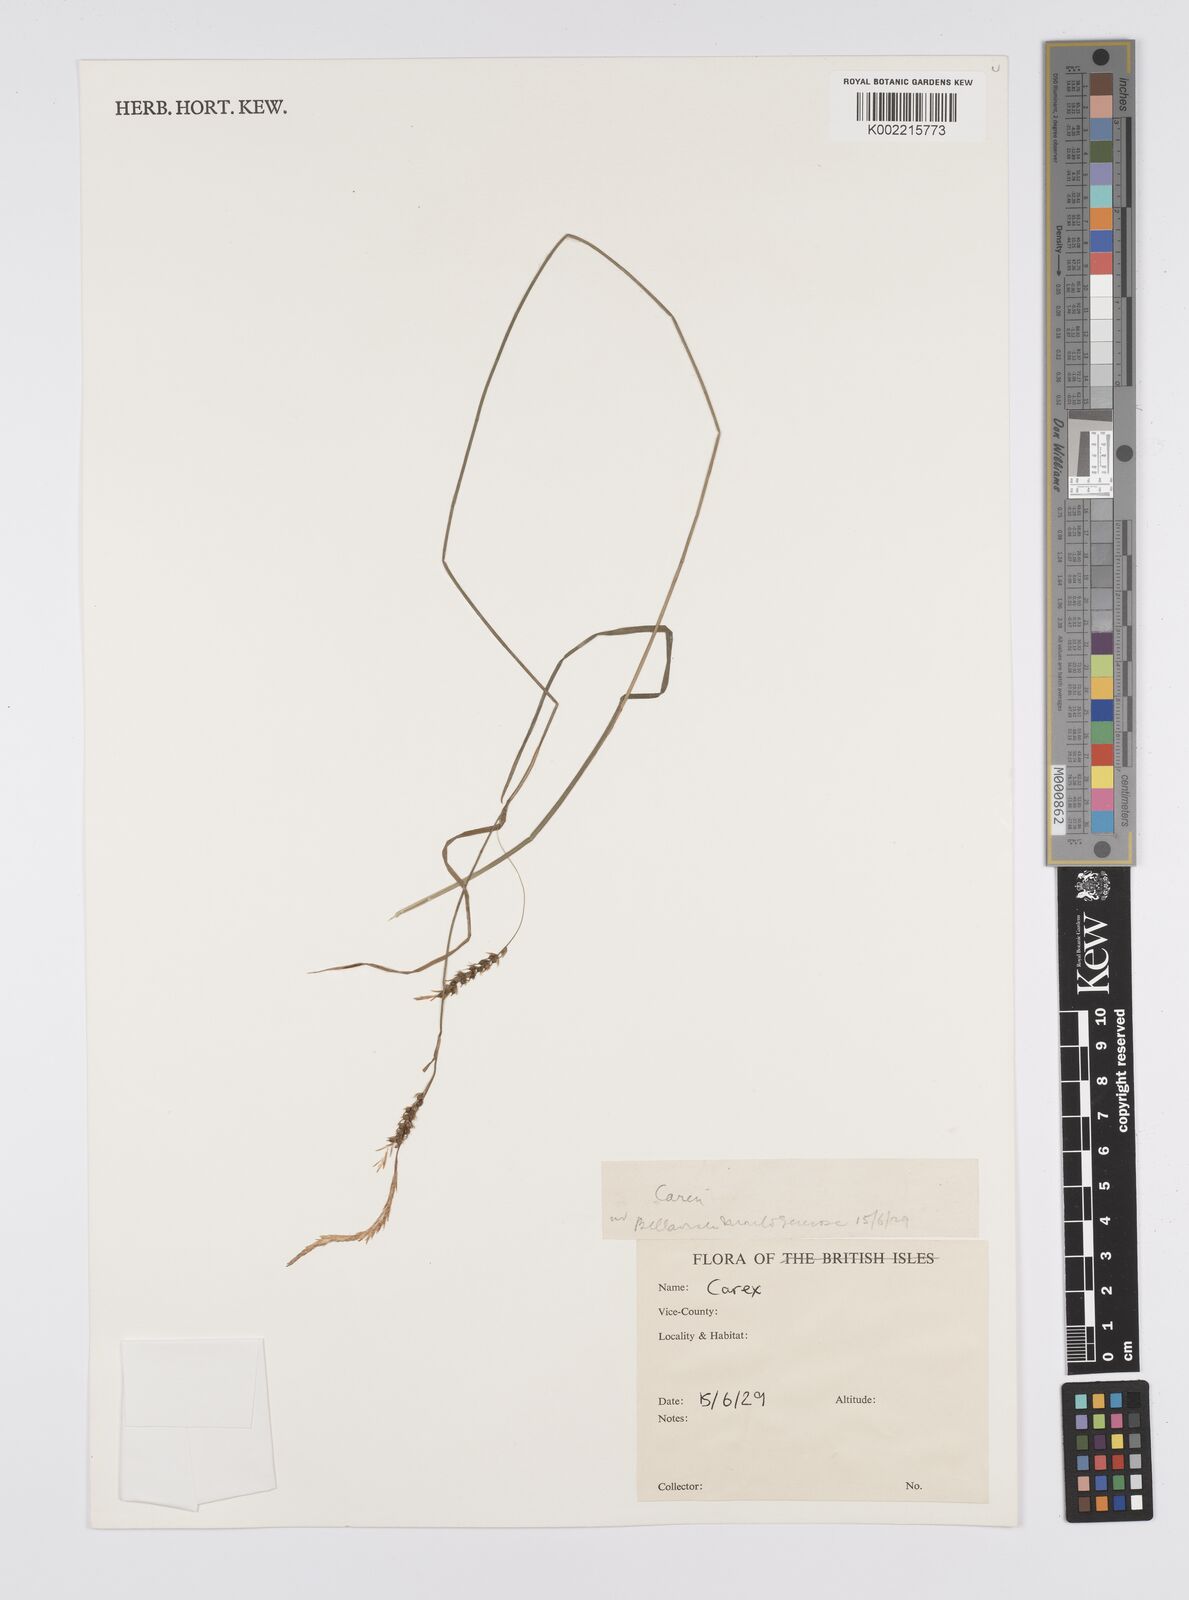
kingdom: Plantae
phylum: Tracheophyta
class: Liliopsida
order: Poales
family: Cyperaceae
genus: Carex
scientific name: Carex
